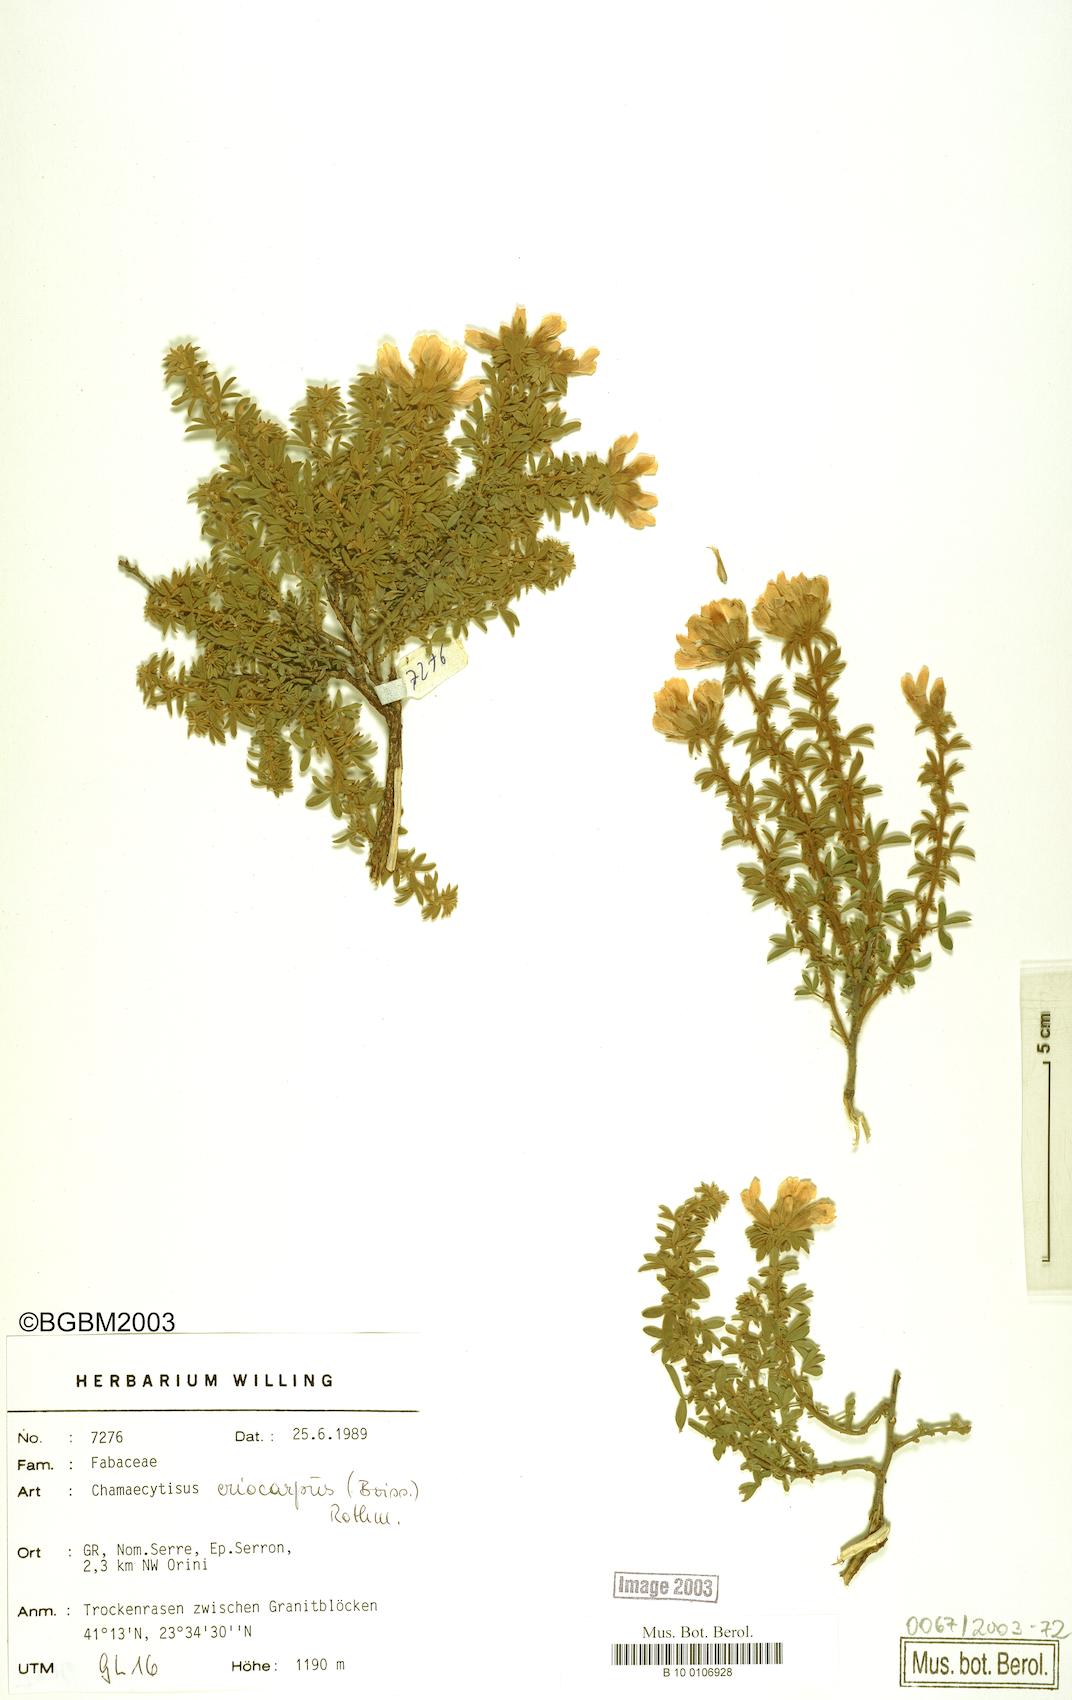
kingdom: Plantae
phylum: Tracheophyta
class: Magnoliopsida
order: Fabales
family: Fabaceae
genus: Chamaecytisus
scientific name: Chamaecytisus eriocarpus
